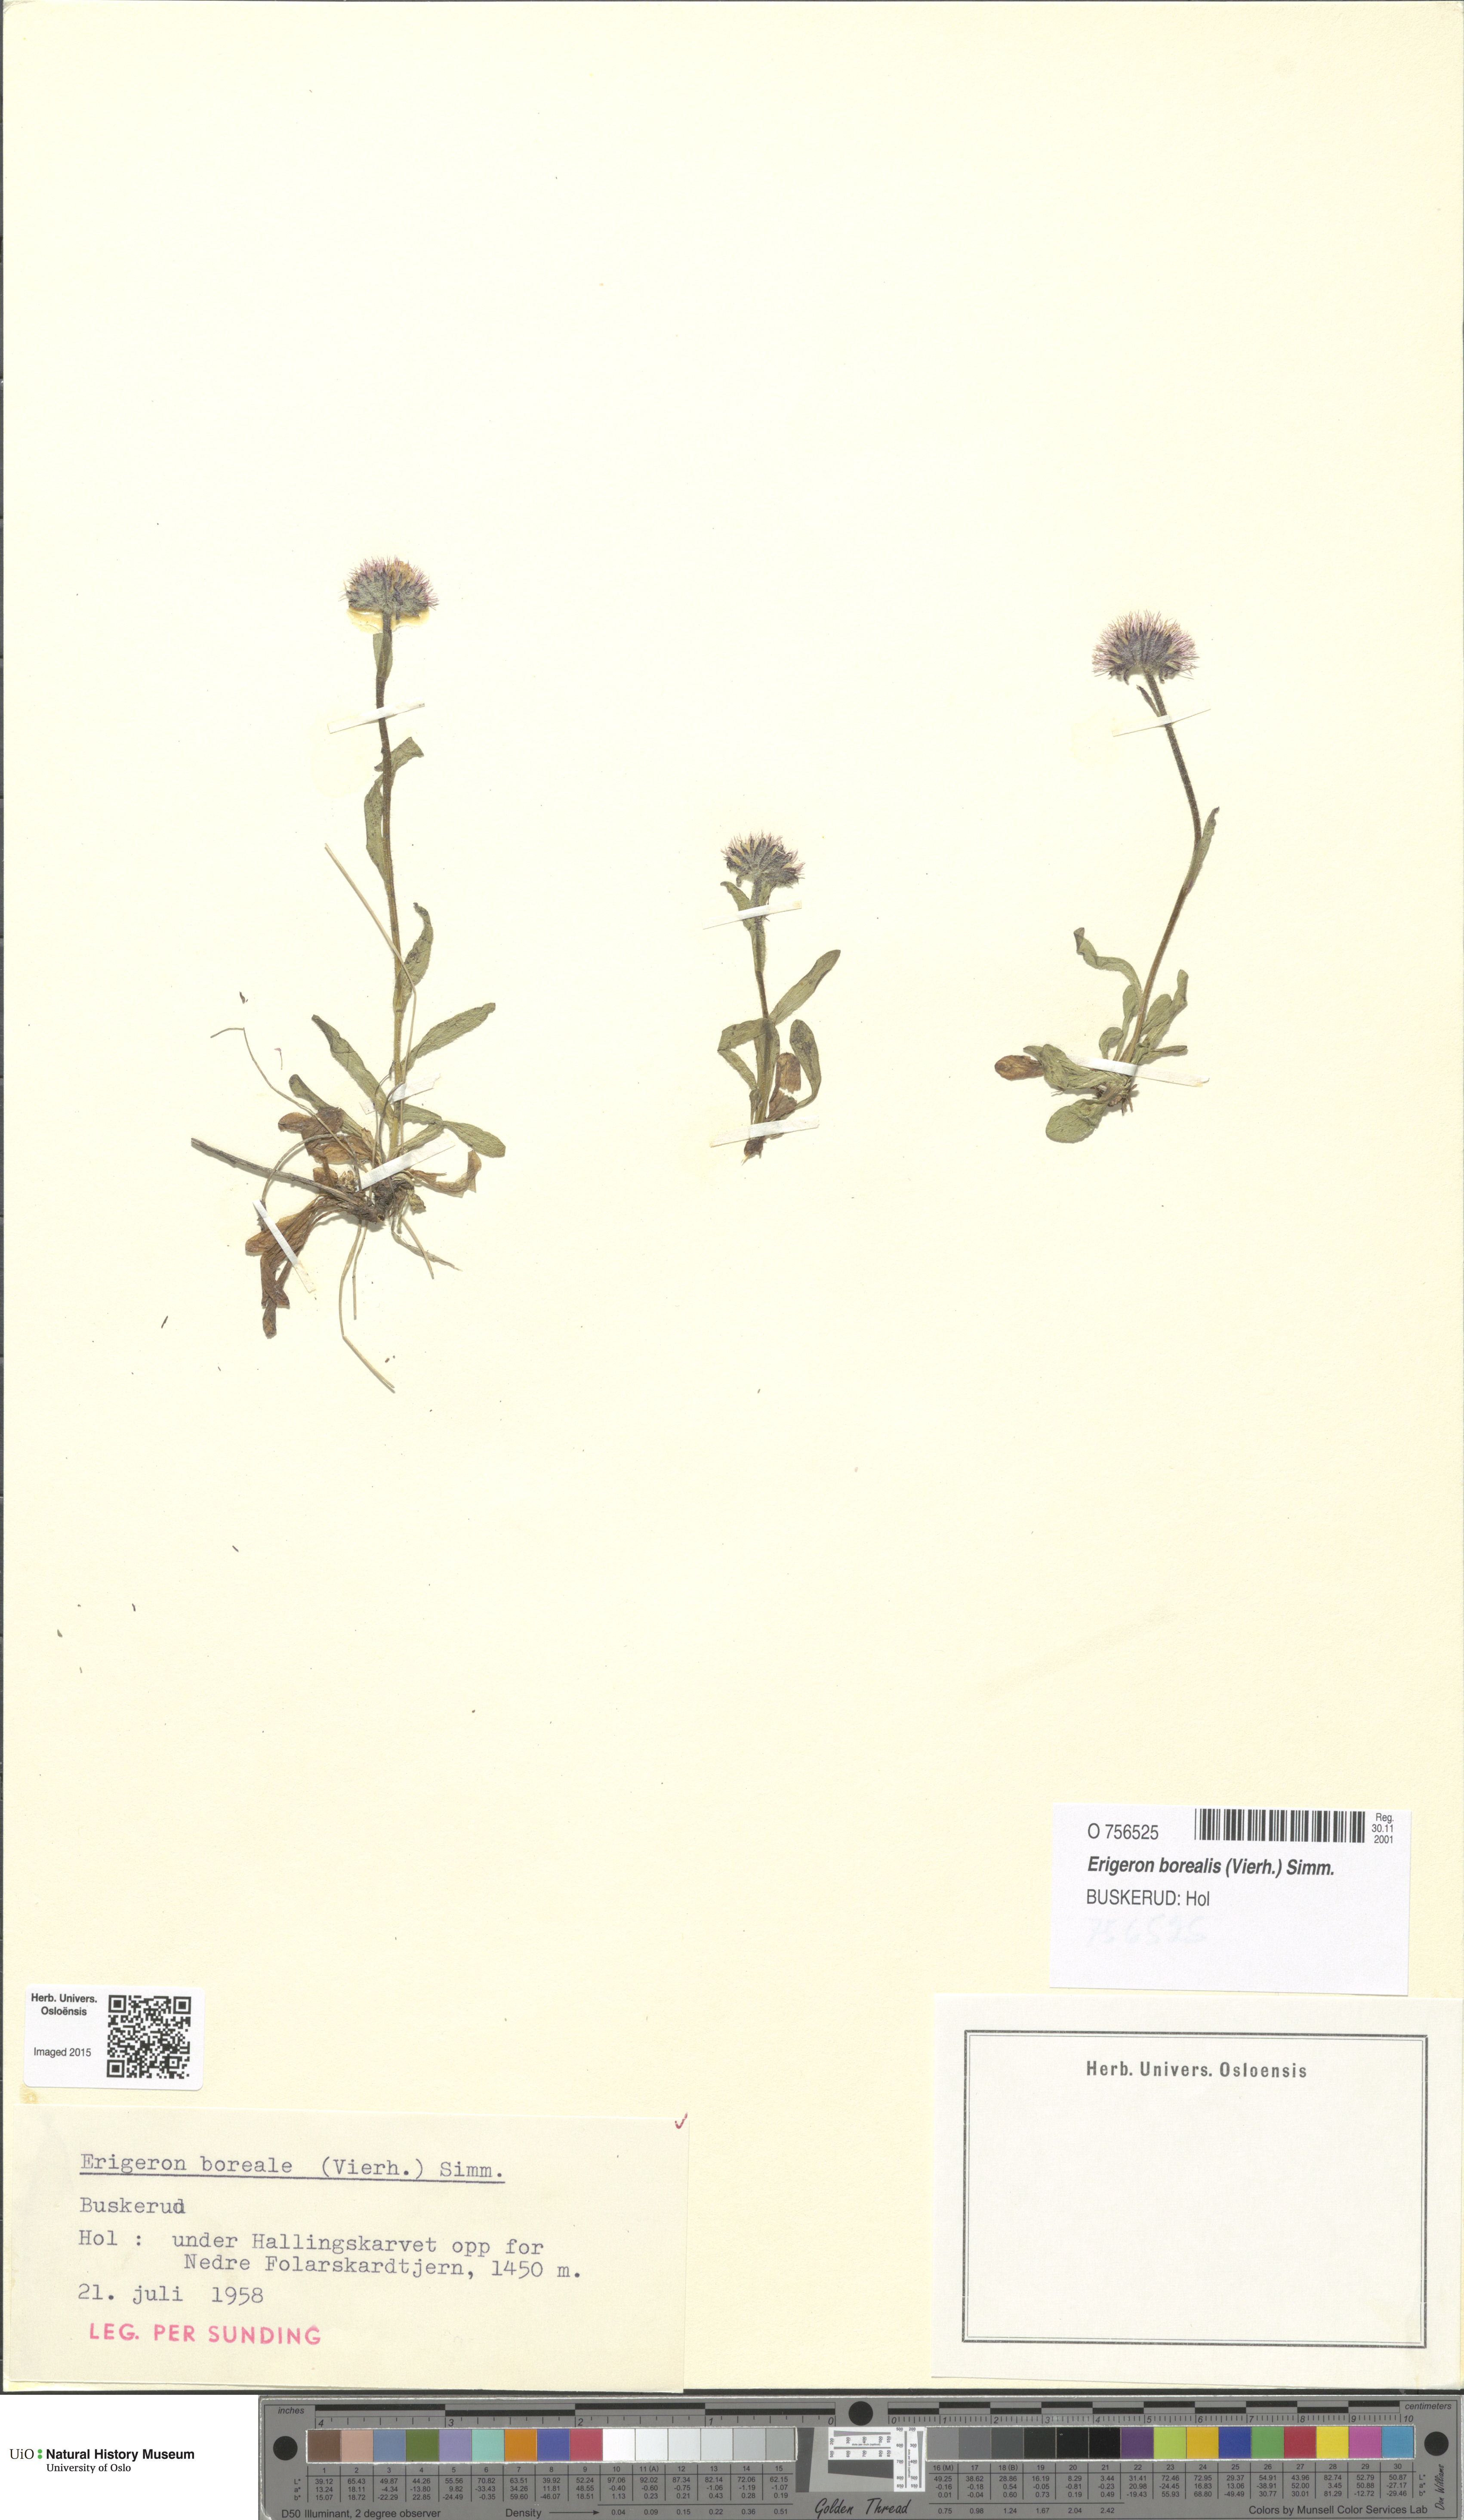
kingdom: Plantae
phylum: Tracheophyta
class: Magnoliopsida
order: Asterales
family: Asteraceae
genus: Erigeron
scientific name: Erigeron borealis
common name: Alpine fleabane
